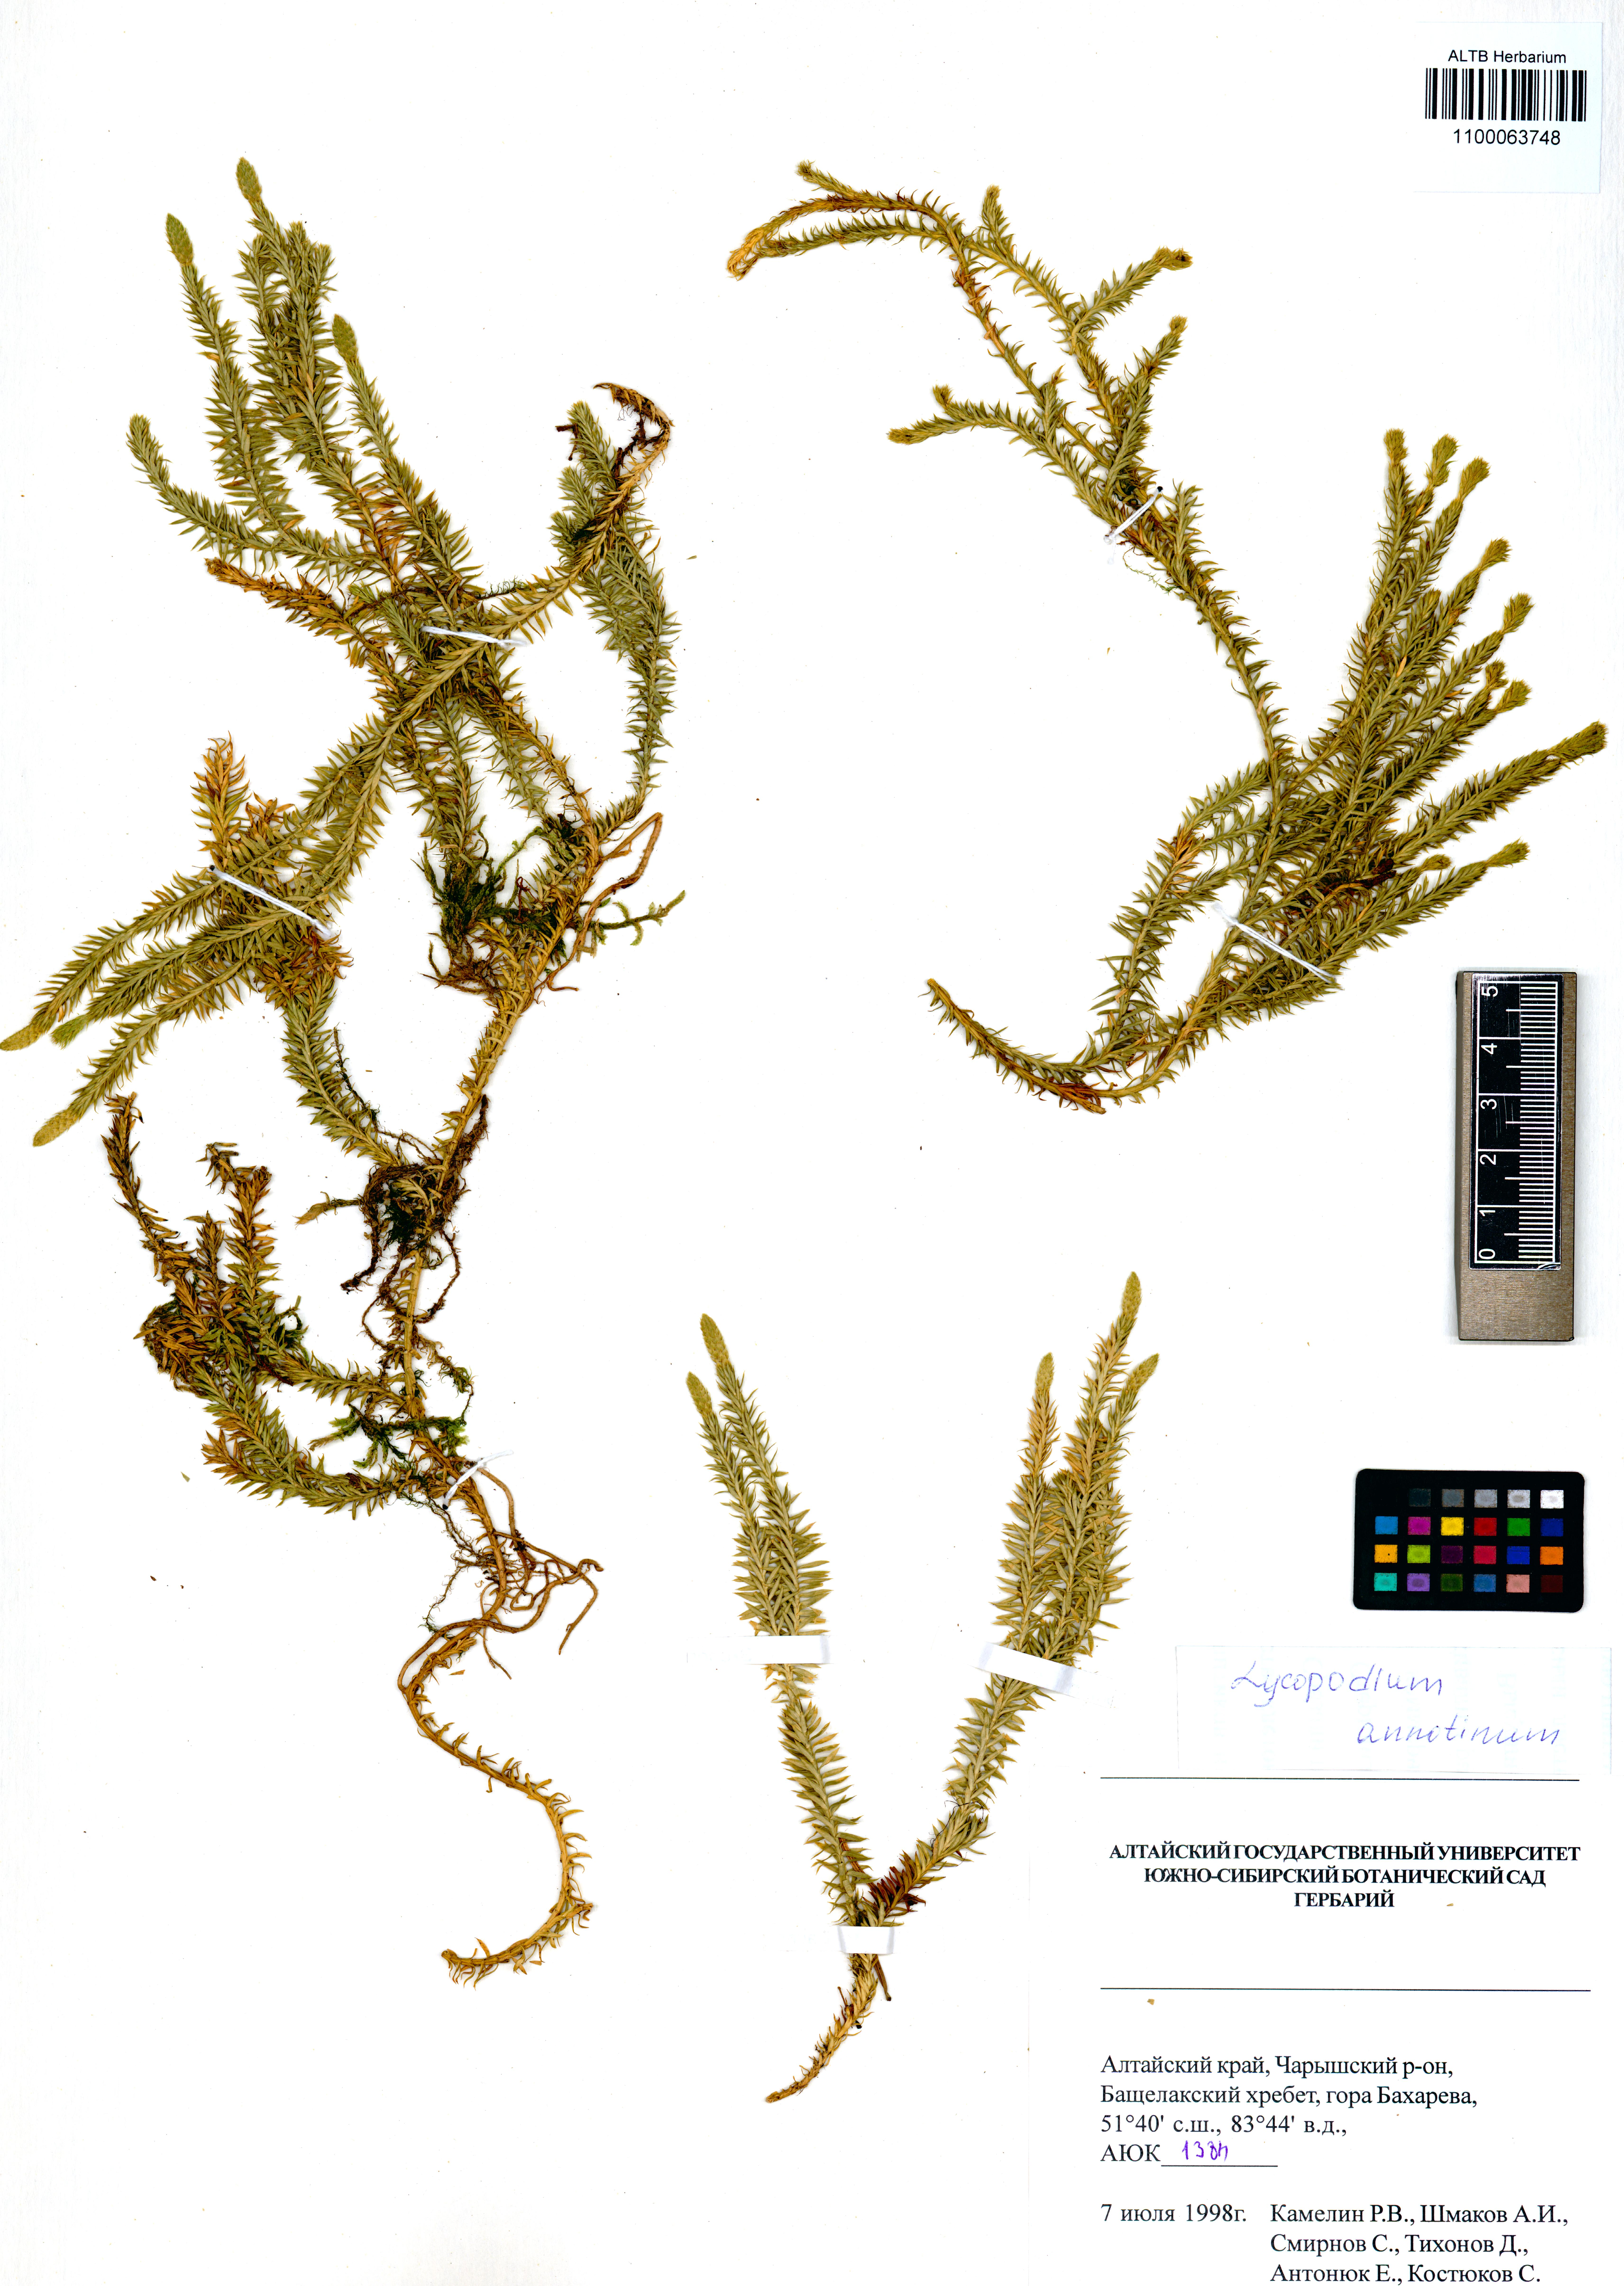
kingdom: Plantae
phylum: Tracheophyta
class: Lycopodiopsida
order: Lycopodiales
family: Lycopodiaceae
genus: Spinulum
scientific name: Spinulum annotinum
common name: Interrupted club-moss
